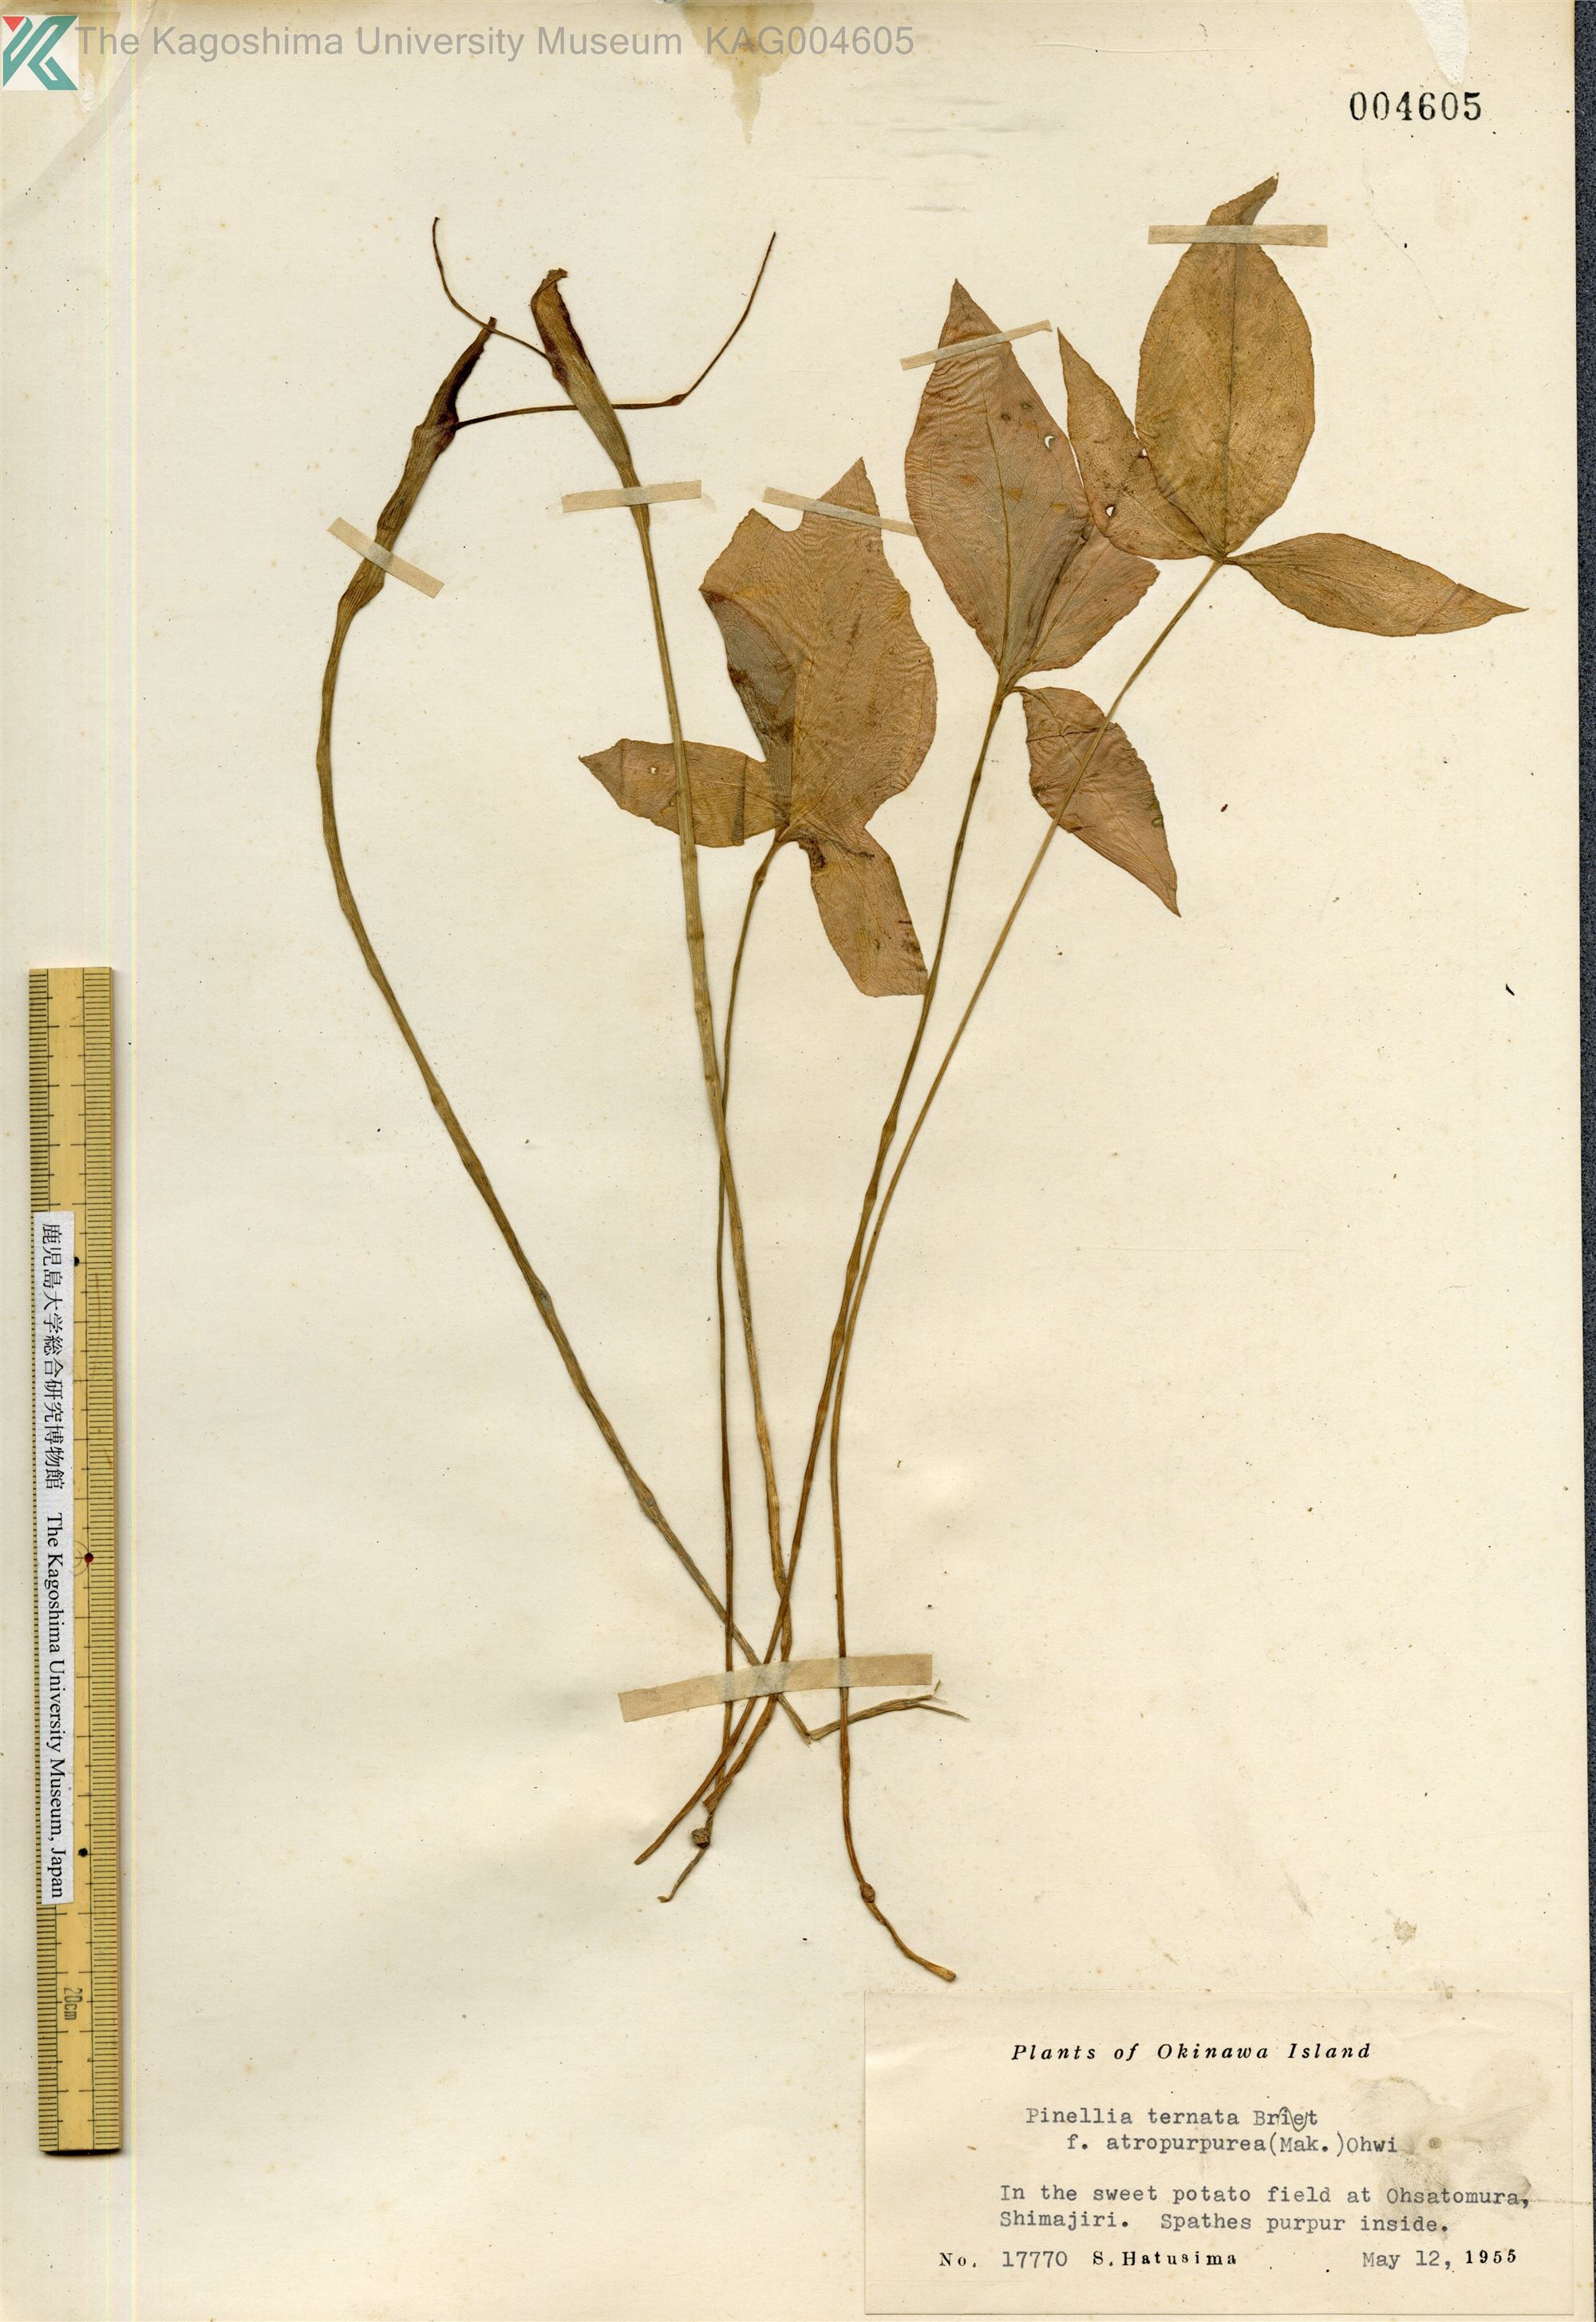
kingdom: Plantae
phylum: Tracheophyta
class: Liliopsida
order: Alismatales
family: Araceae
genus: Pinellia
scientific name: Pinellia ternata
